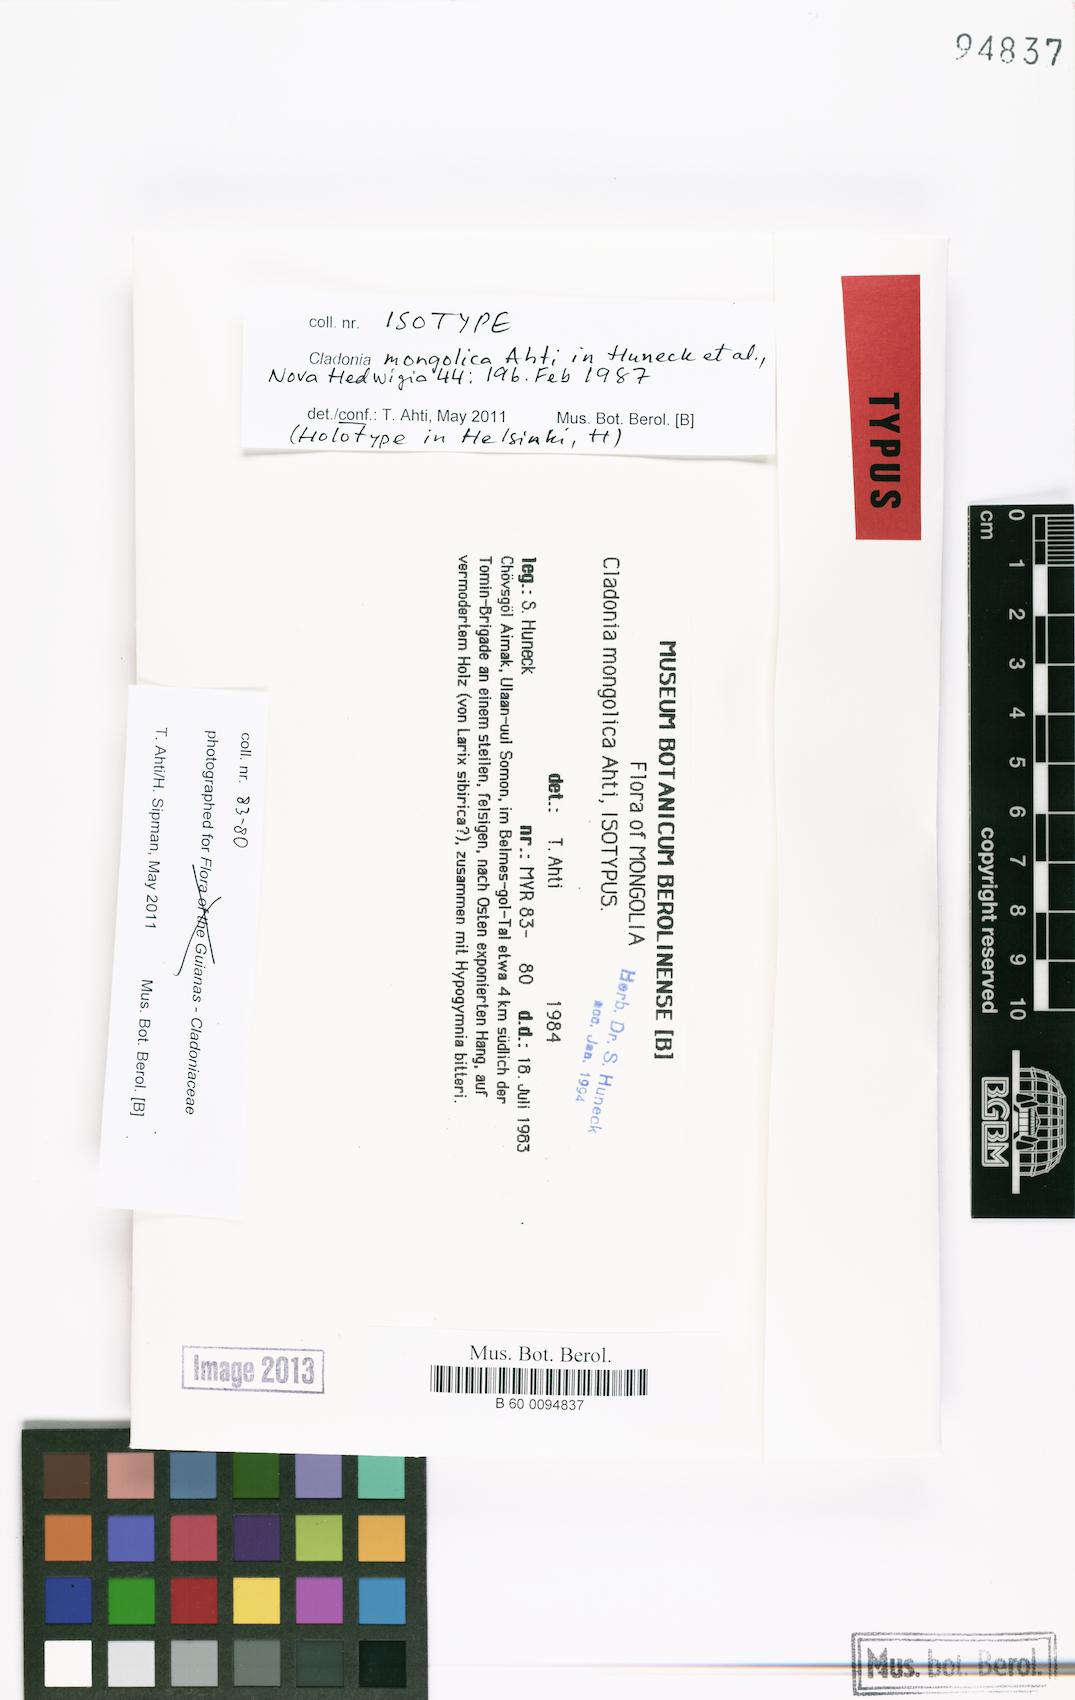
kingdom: Fungi
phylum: Ascomycota
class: Lecanoromycetes
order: Lecanorales
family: Cladoniaceae
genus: Cladonia
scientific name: Cladonia mongolica
